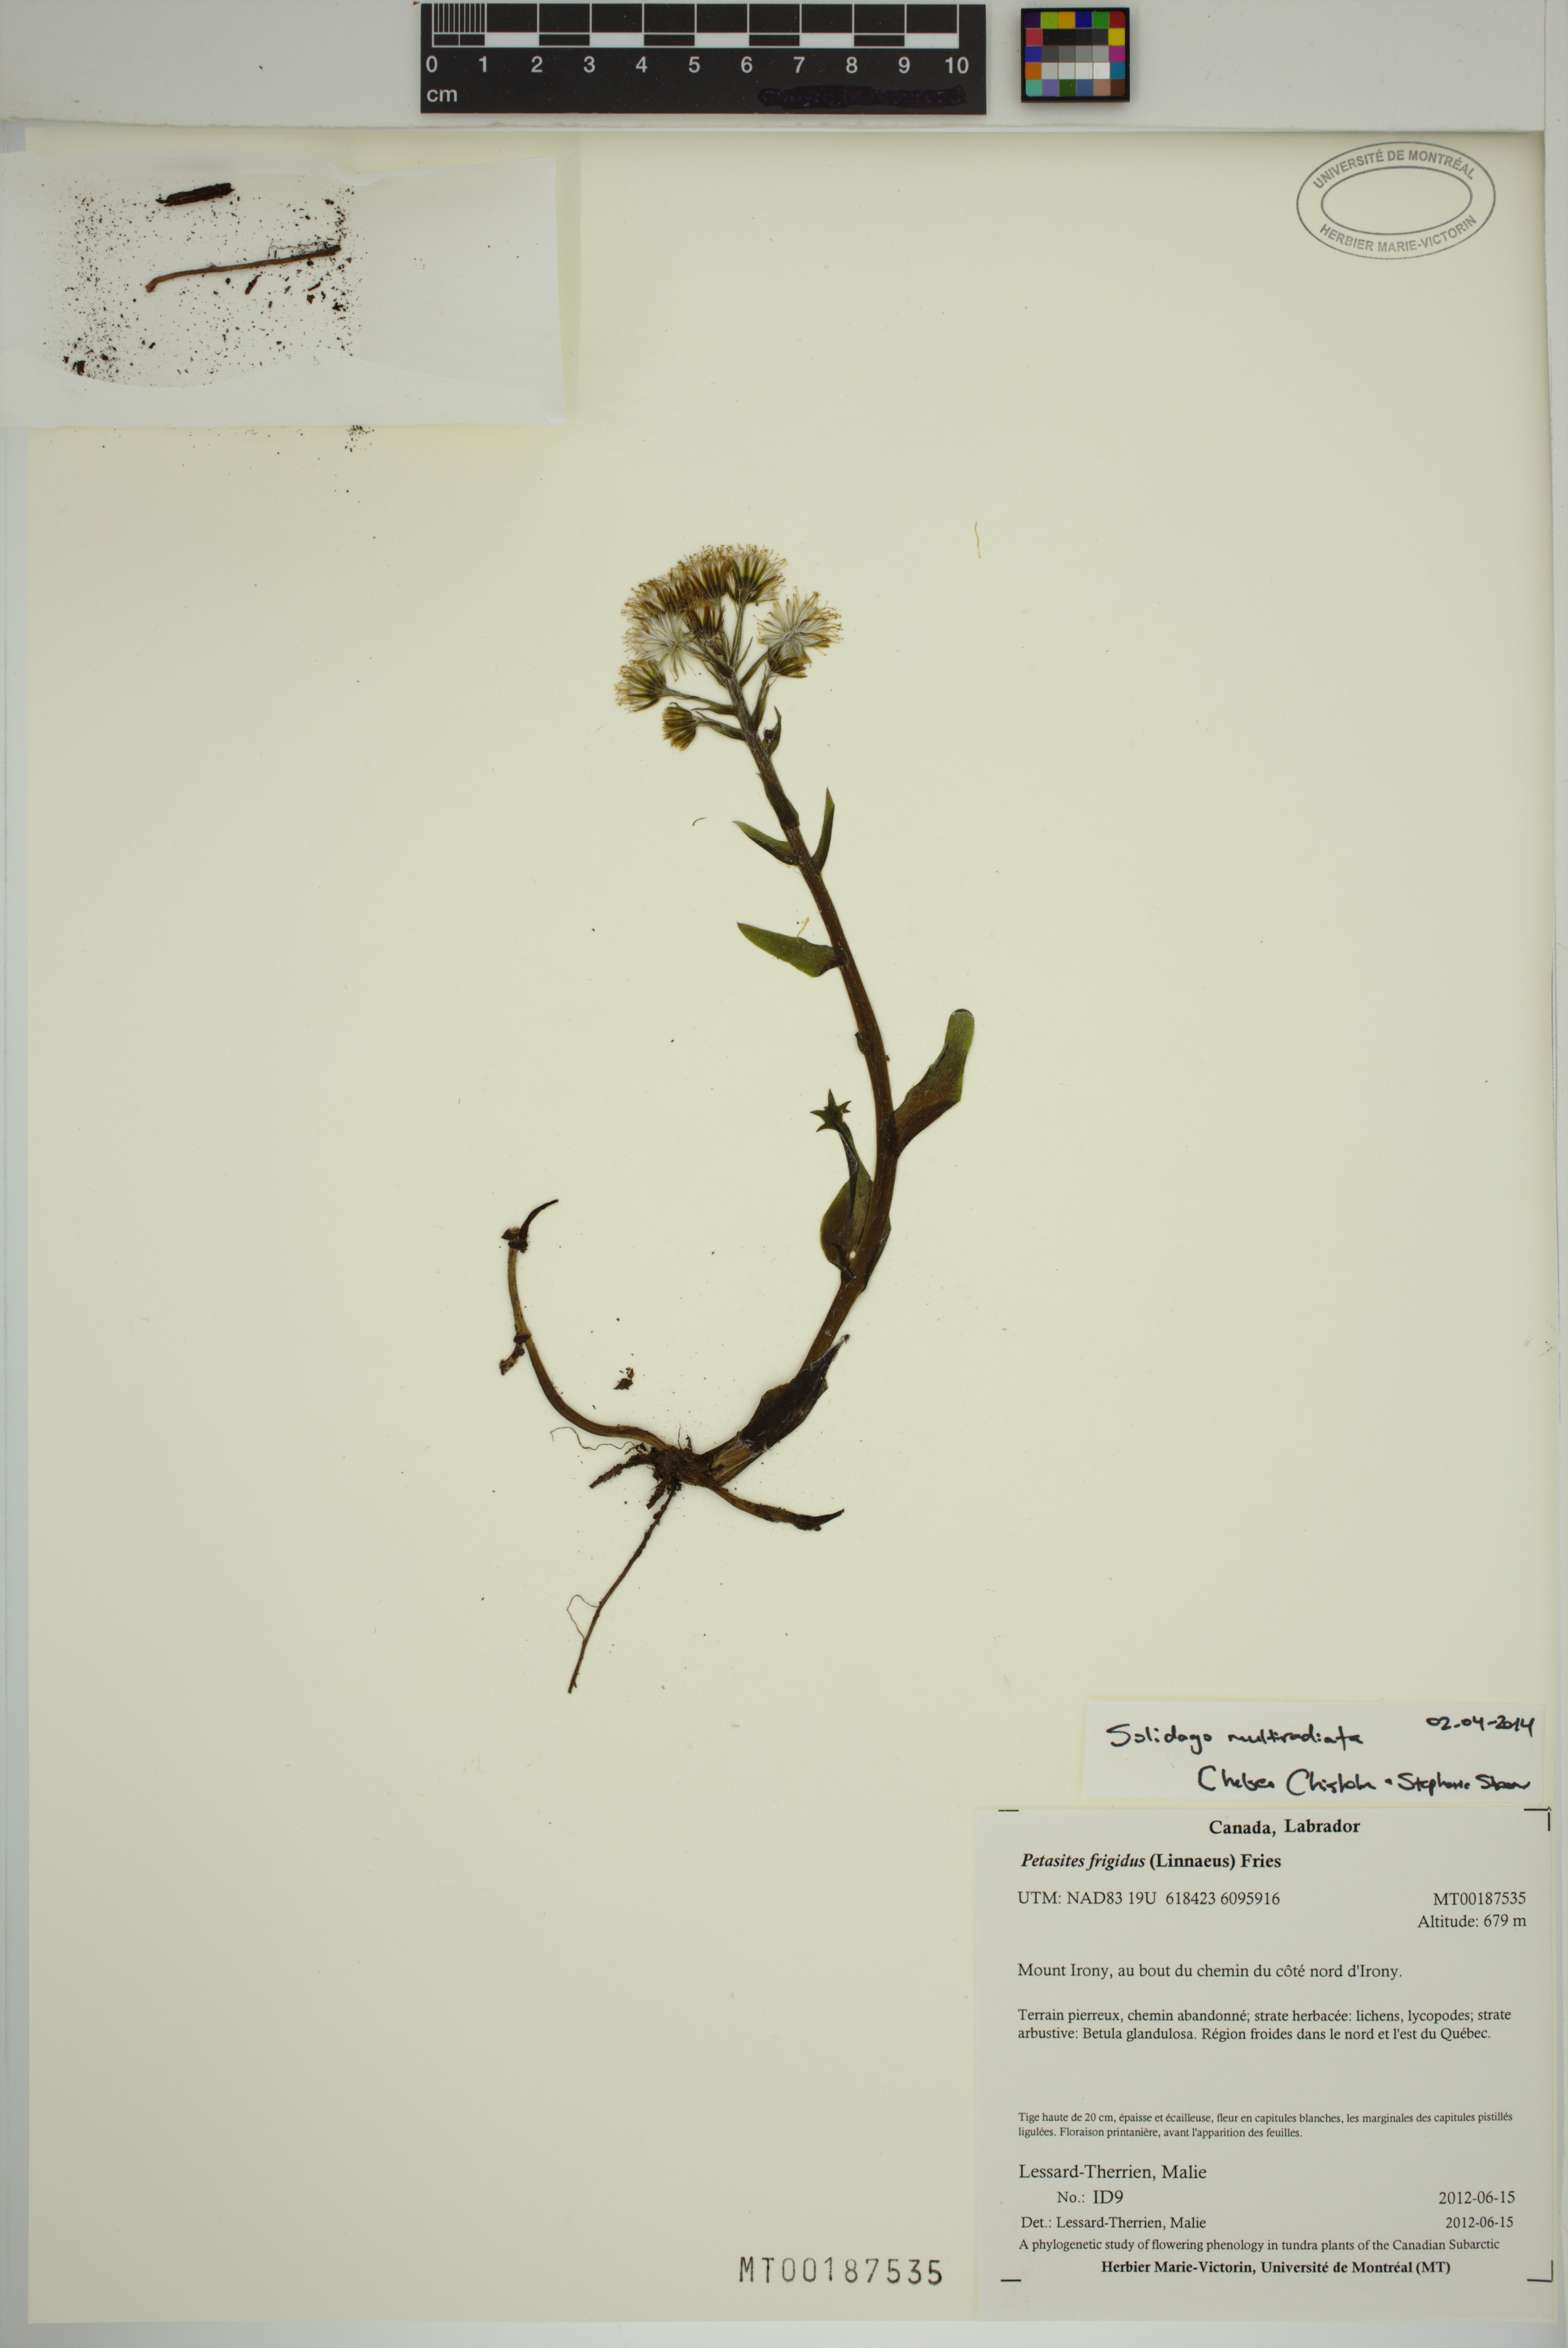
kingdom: Plantae
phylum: Tracheophyta
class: Magnoliopsida
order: Asterales
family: Asteraceae
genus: Petasites
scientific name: Petasites frigidus
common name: Arctic butterbur
